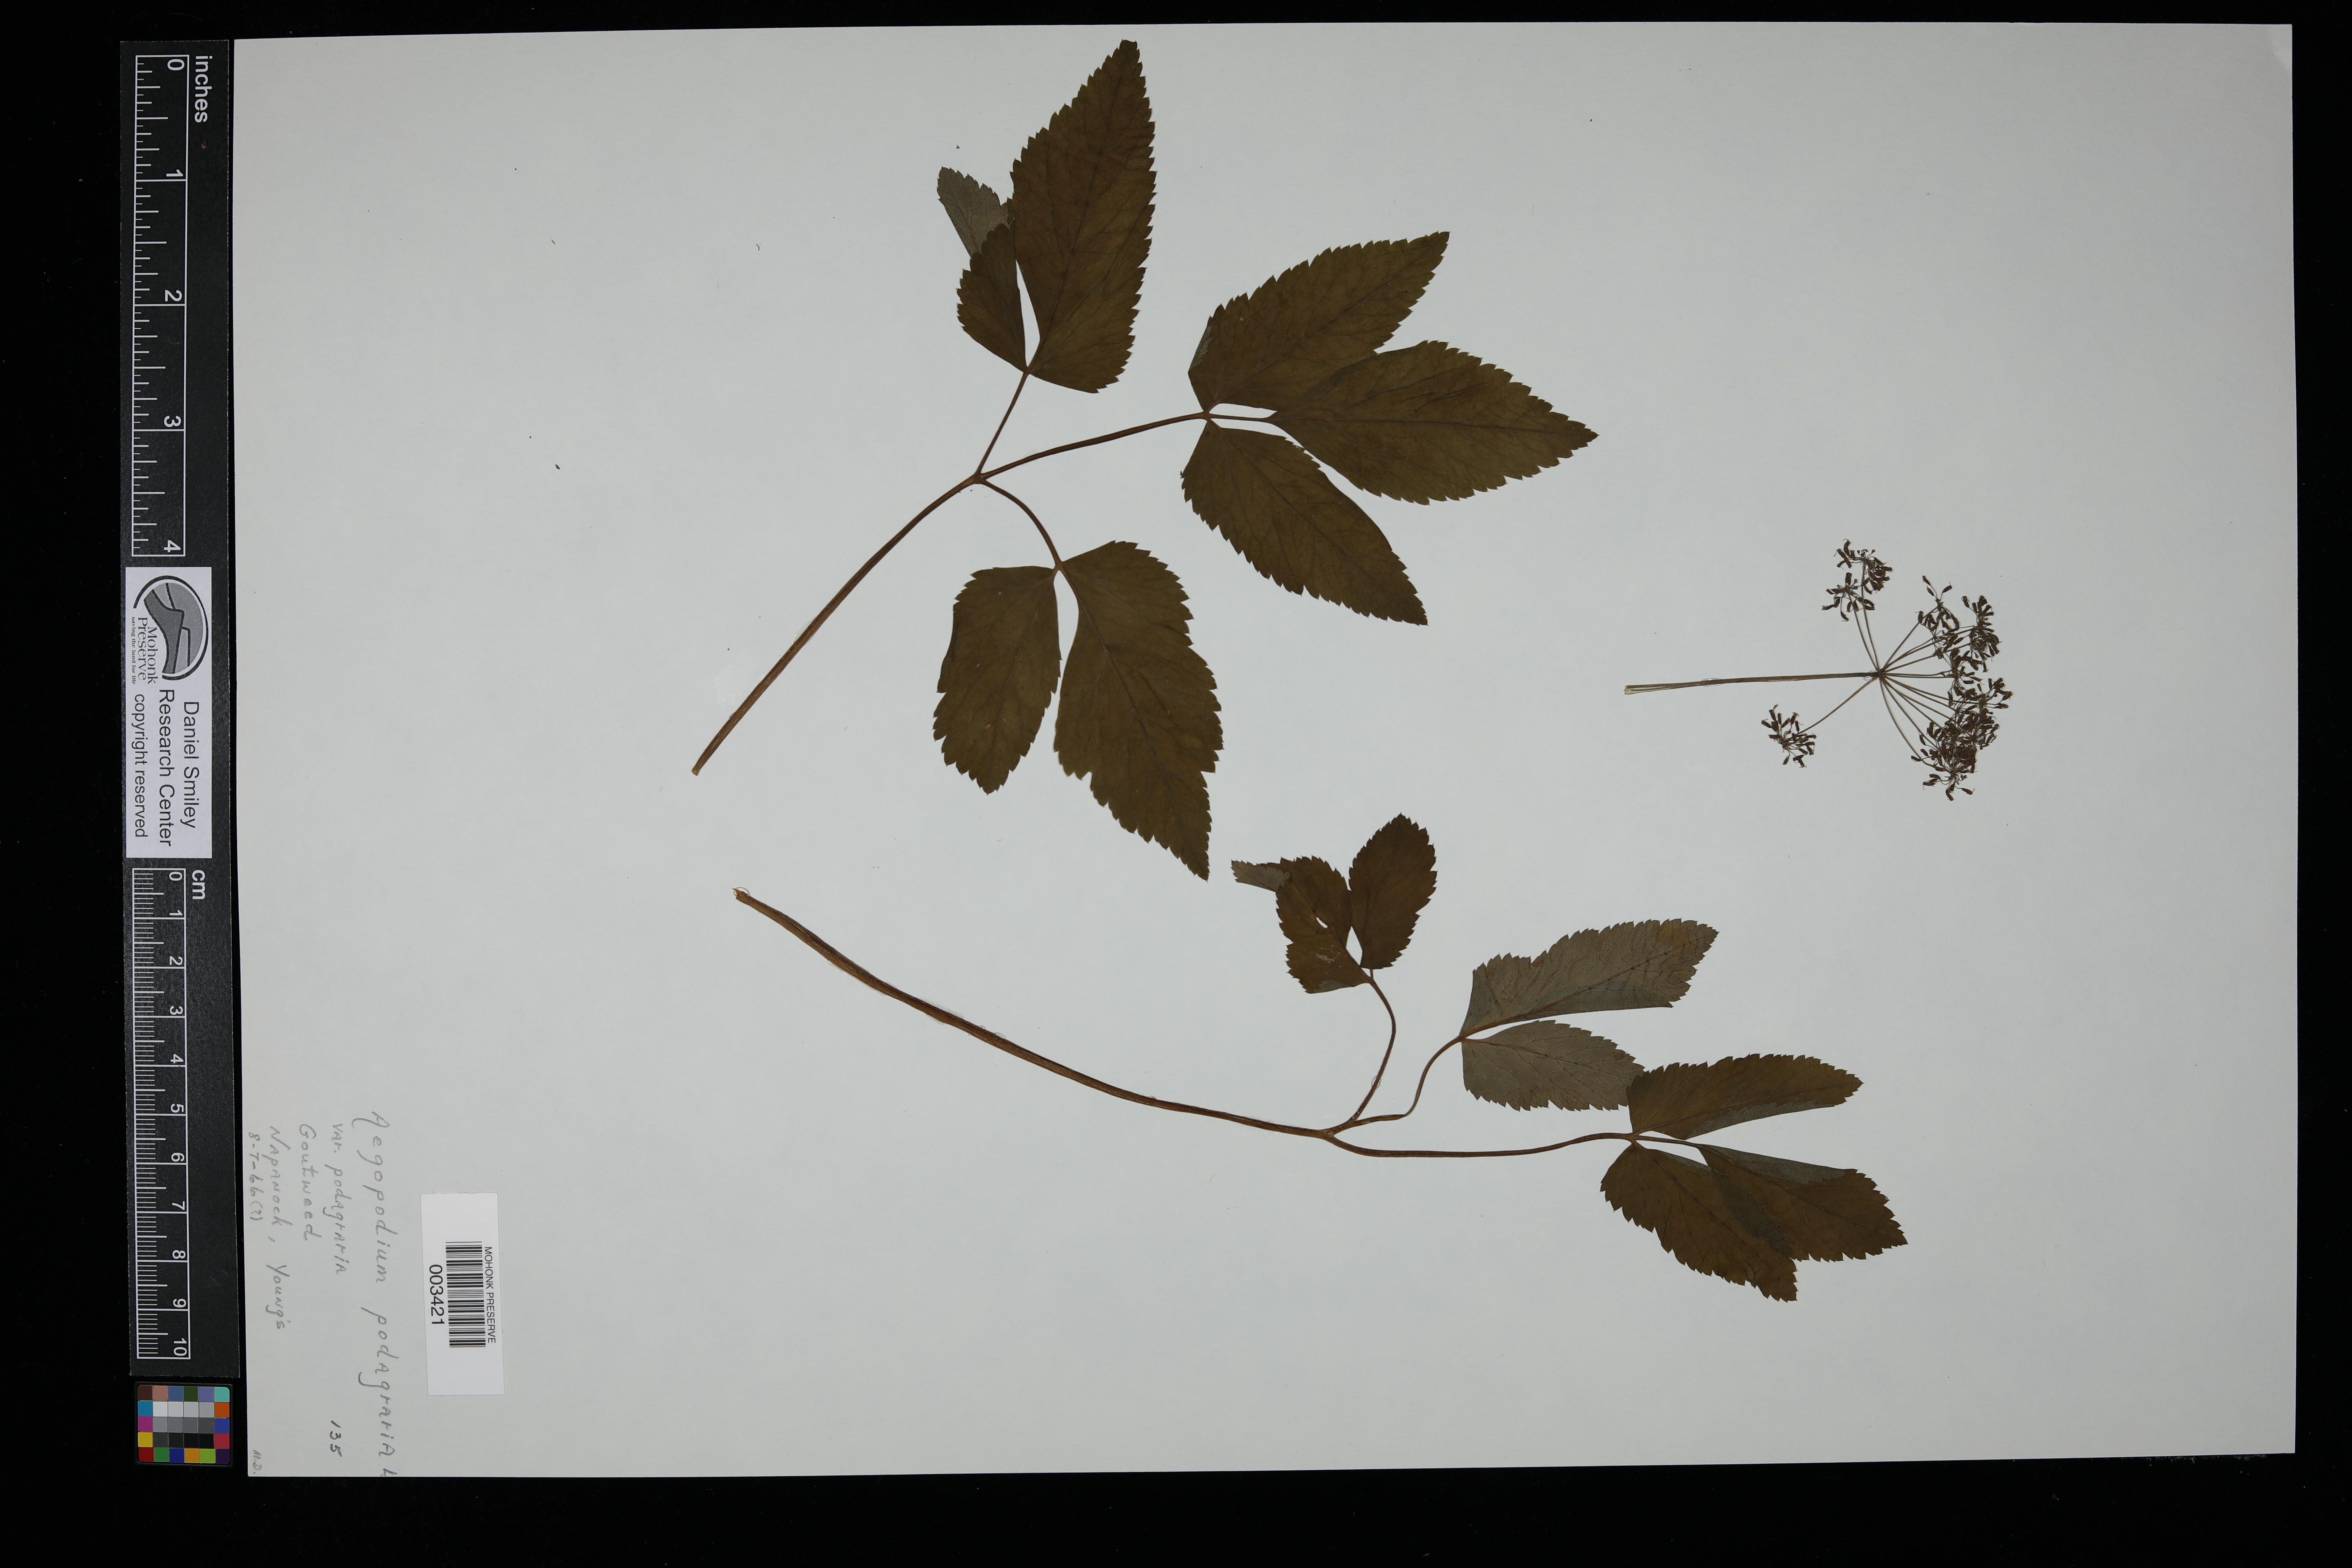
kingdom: Plantae
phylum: Tracheophyta
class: Magnoliopsida
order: Apiales
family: Apiaceae
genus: Aegopodium
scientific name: Aegopodium podagraria
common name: Ground-elder
